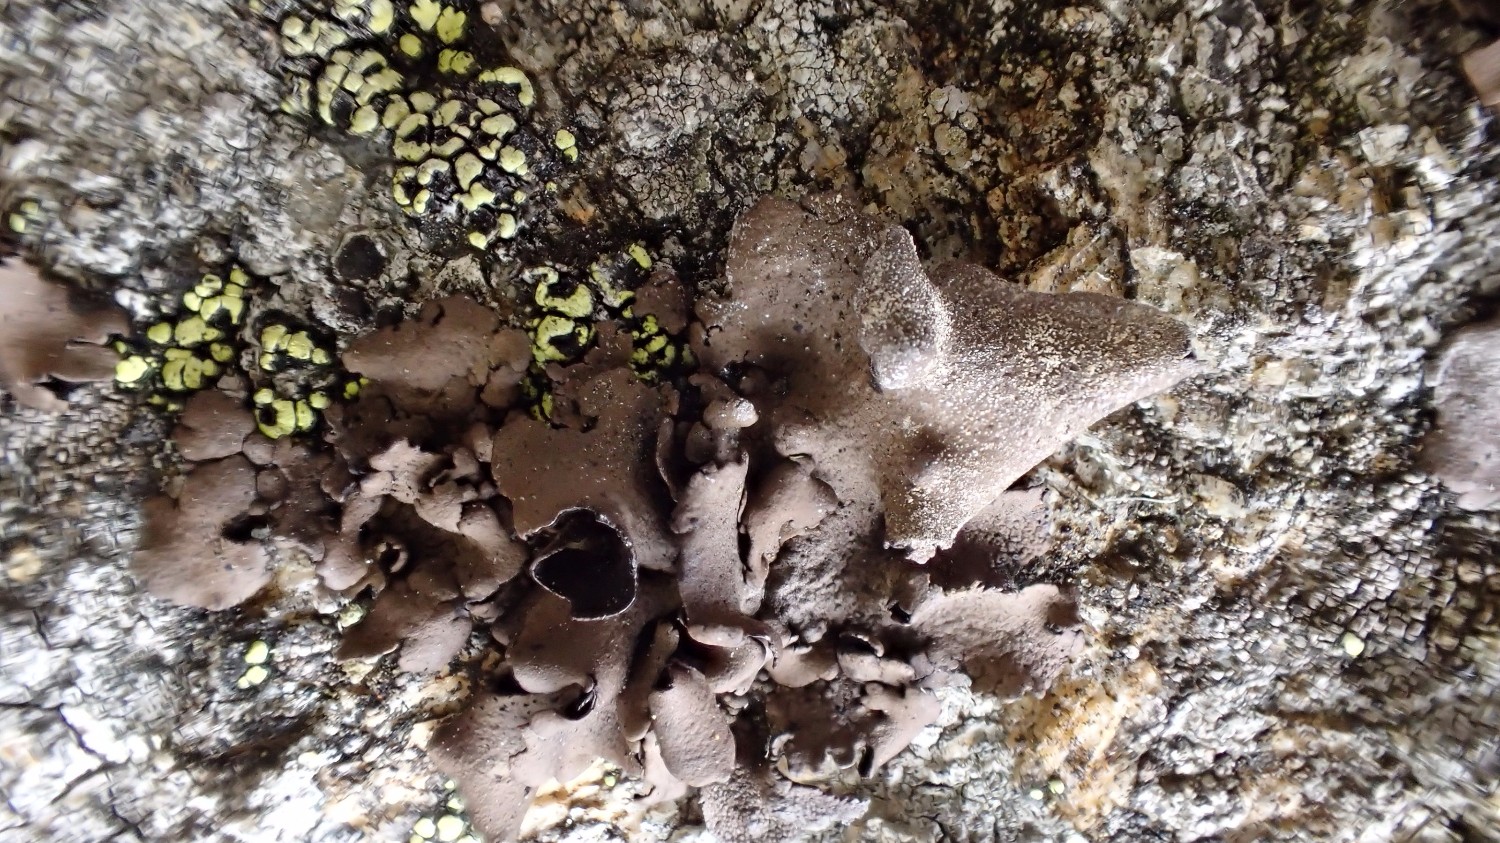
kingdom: Fungi
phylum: Ascomycota
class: Lecanoromycetes
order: Umbilicariales
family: Umbilicariaceae
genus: Umbilicaria
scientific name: Umbilicaria polyphylla
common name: glat navlelav
